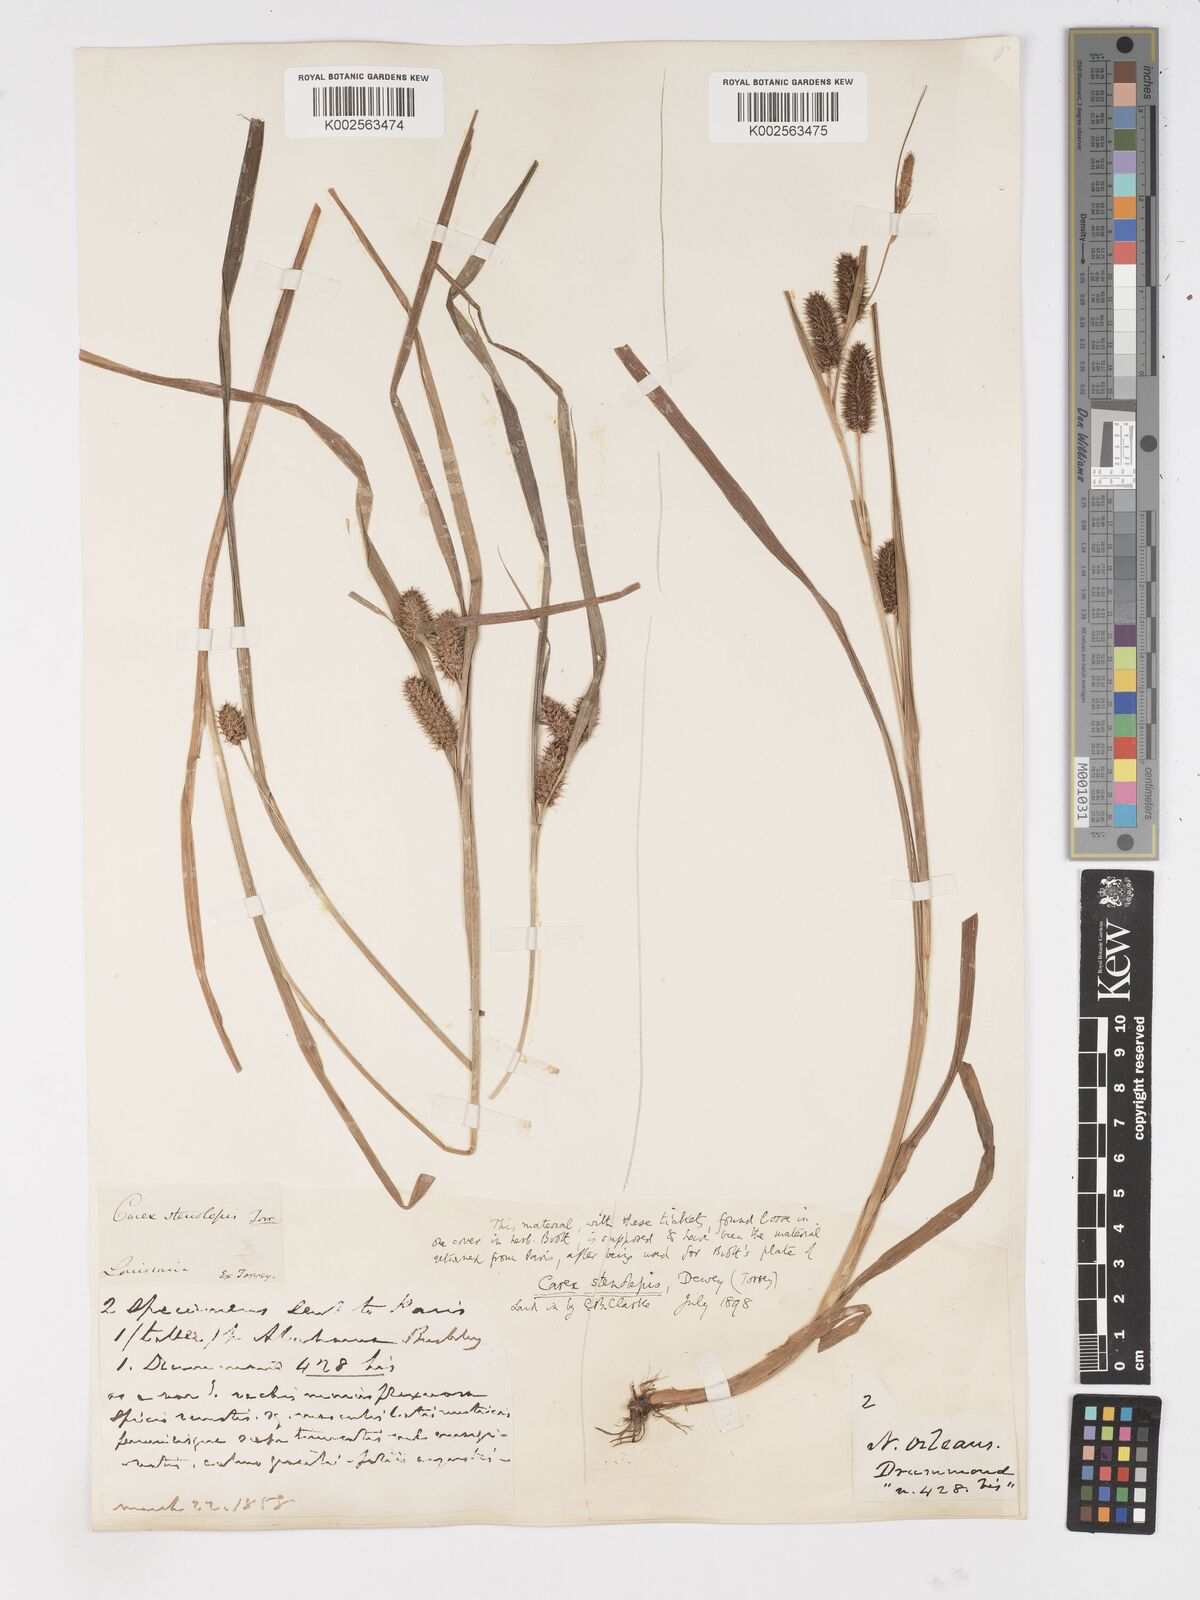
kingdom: Plantae
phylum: Tracheophyta
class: Liliopsida
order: Poales
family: Cyperaceae
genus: Carex
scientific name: Carex frankii
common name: Frank's sedge
